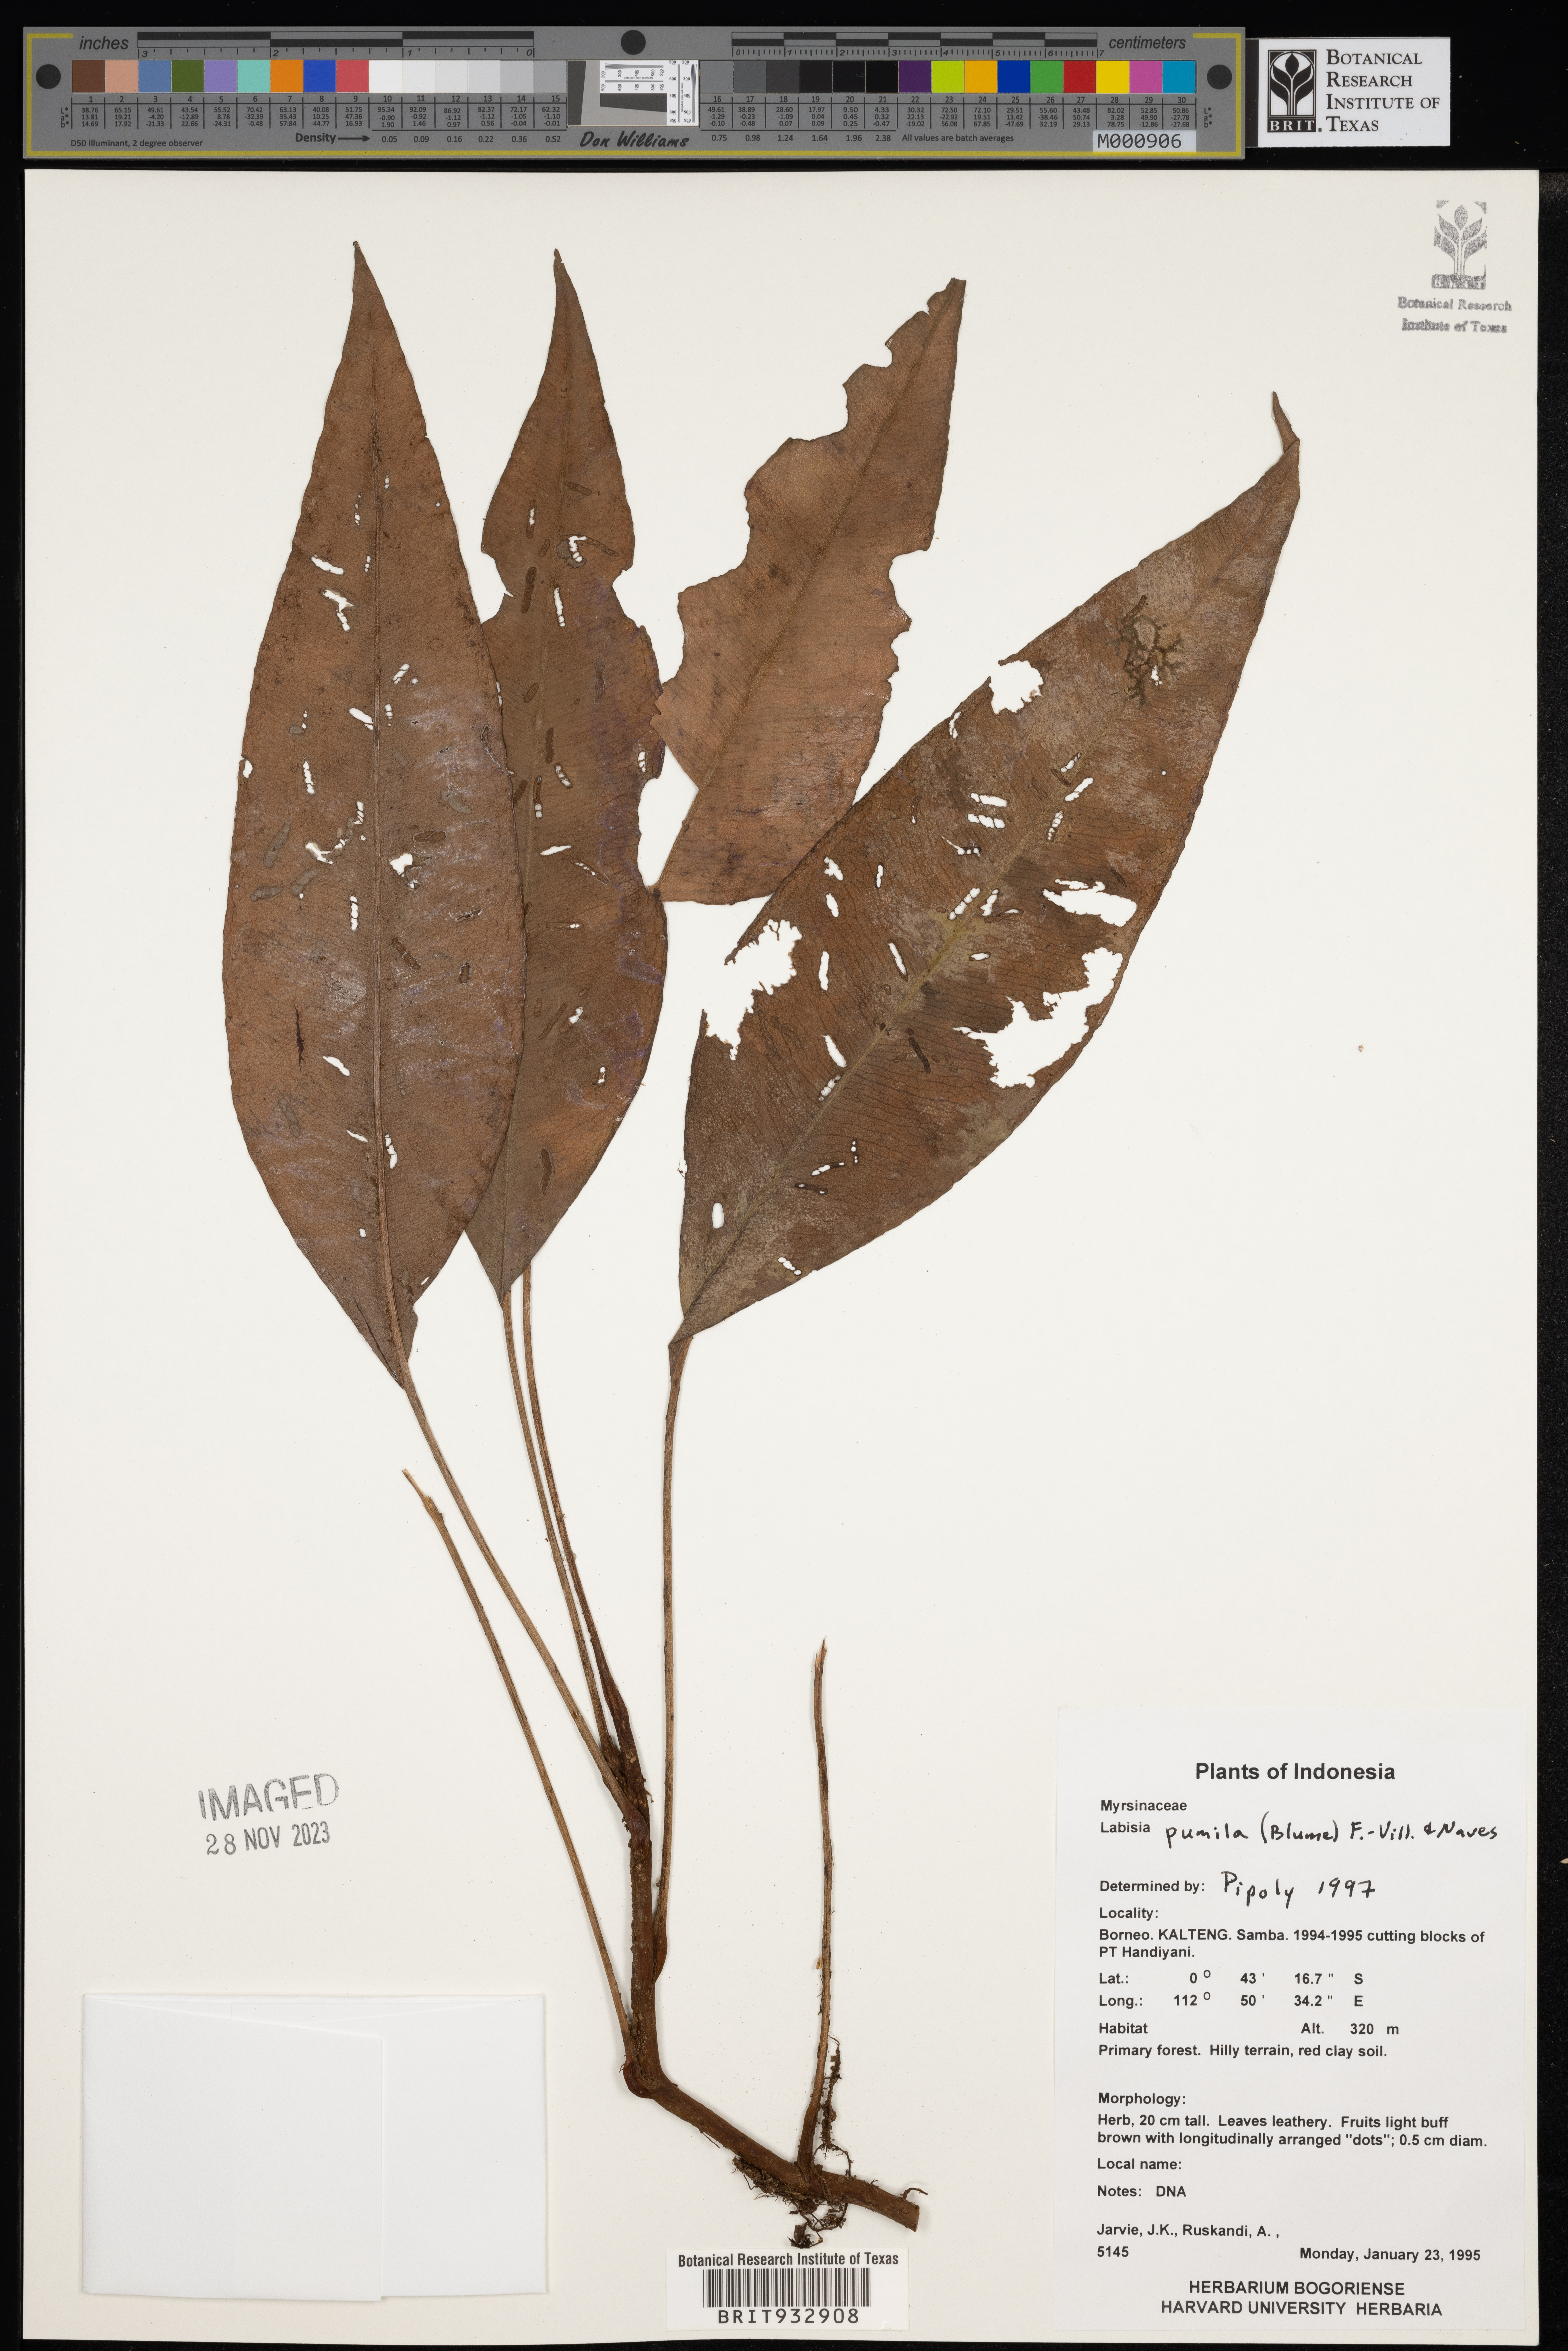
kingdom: Plantae
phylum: Tracheophyta
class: Magnoliopsida
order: Ericales
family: Primulaceae
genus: Labisia
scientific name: Labisia
